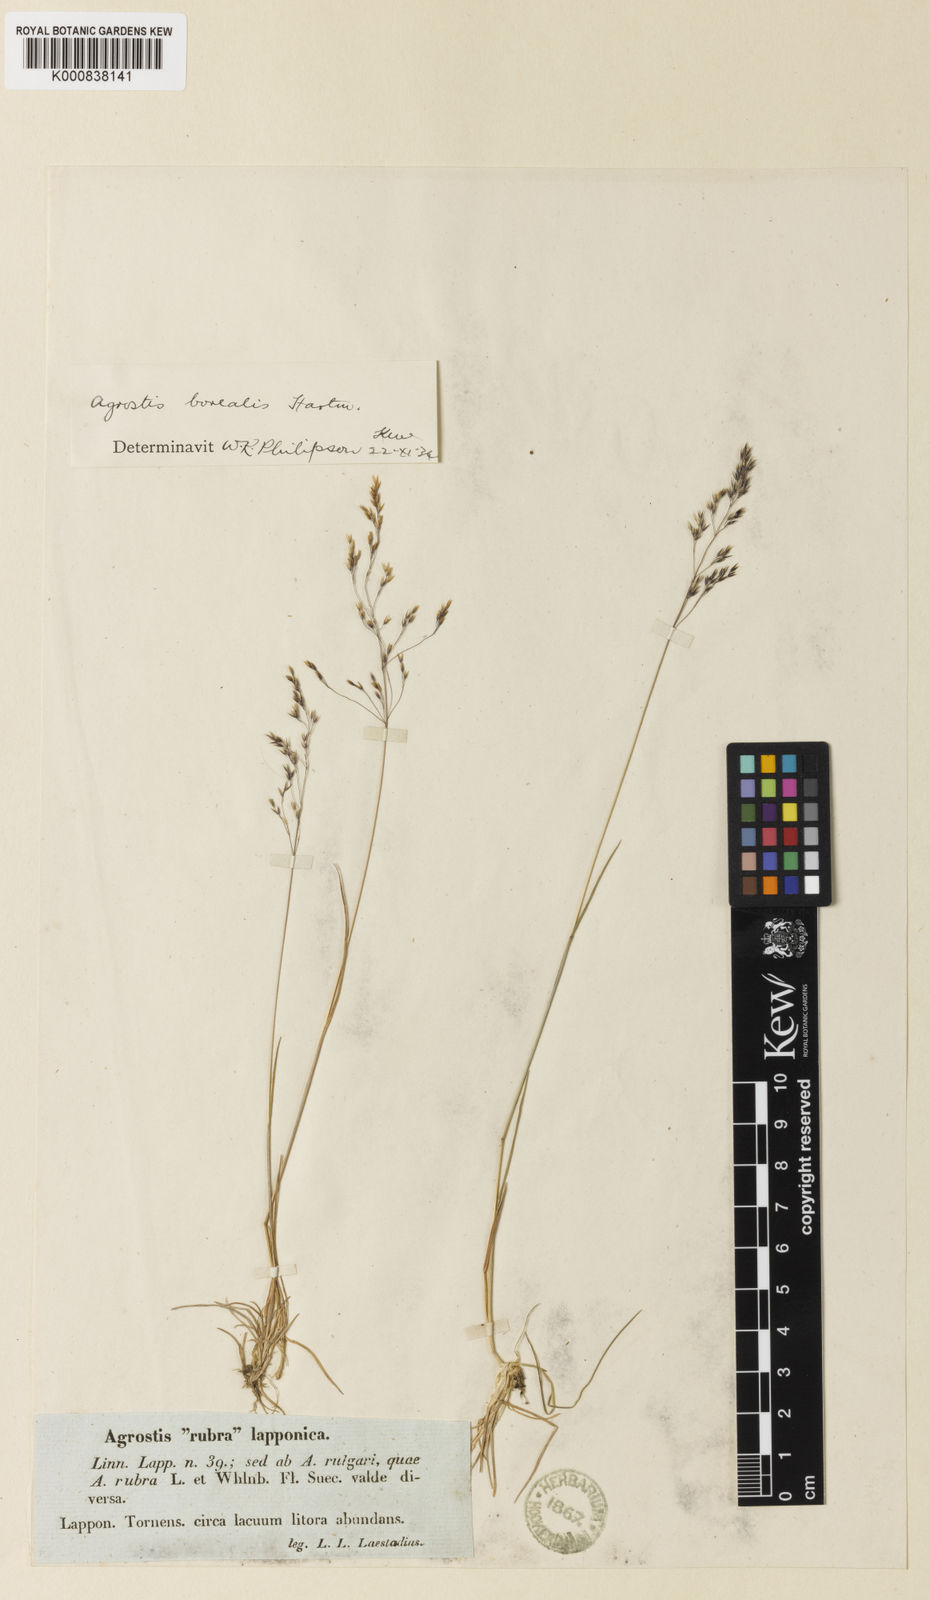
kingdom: Plantae
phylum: Tracheophyta
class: Liliopsida
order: Poales
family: Poaceae
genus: Agrostis
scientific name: Agrostis mertensii
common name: Northern bent
